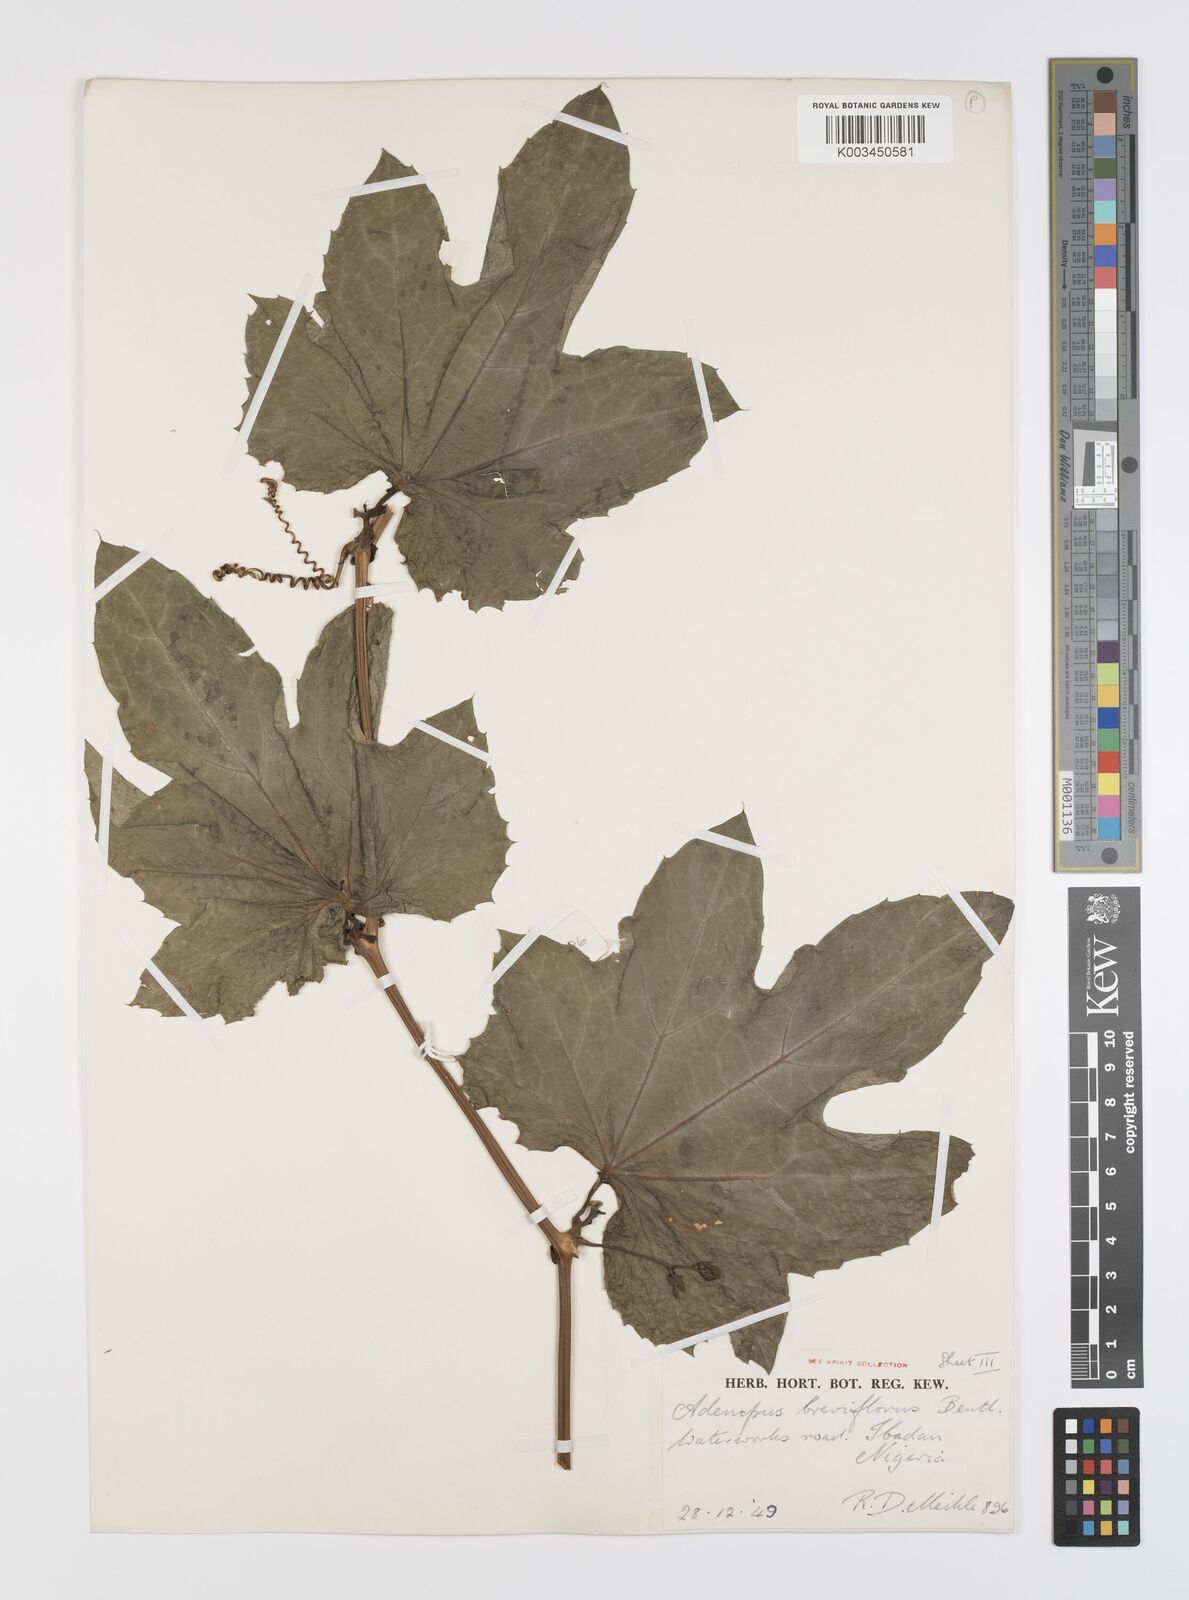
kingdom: Plantae
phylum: Tracheophyta
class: Magnoliopsida
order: Cucurbitales
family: Cucurbitaceae
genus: Lagenaria
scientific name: Lagenaria breviflora
